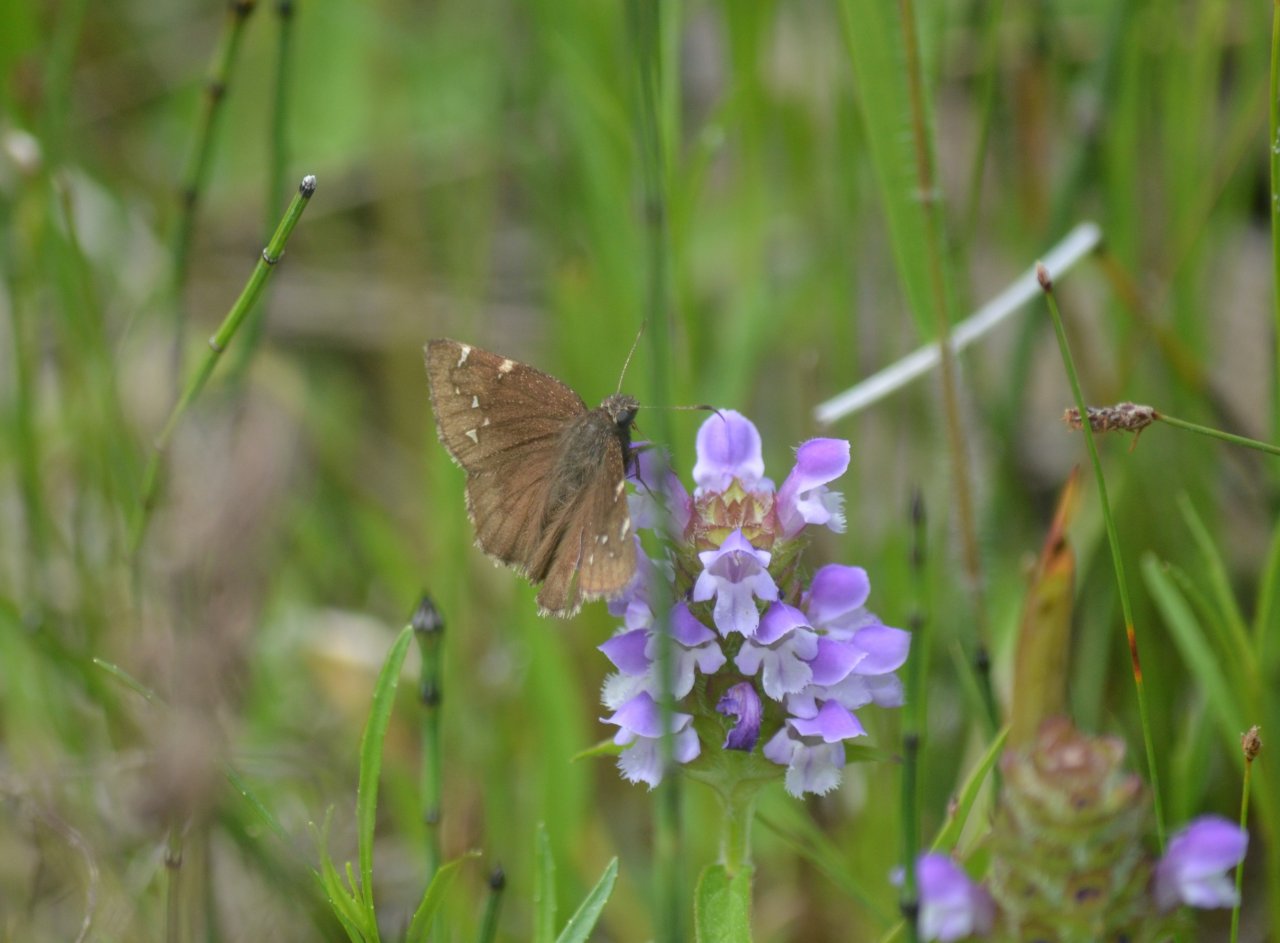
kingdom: Animalia
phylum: Arthropoda
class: Insecta
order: Lepidoptera
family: Hesperiidae
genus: Autochton
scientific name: Autochton
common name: Northern Cloudywing
